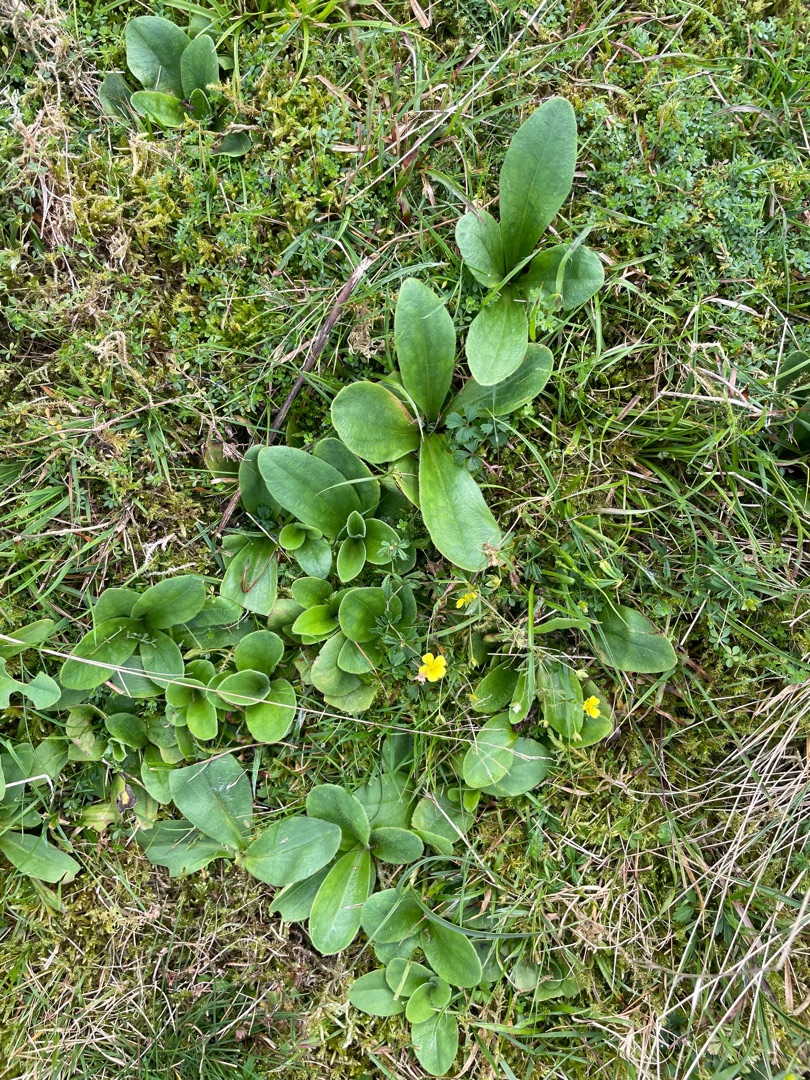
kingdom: Plantae
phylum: Tracheophyta
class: Magnoliopsida
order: Asterales
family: Asteraceae
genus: Arnica
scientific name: Arnica montana
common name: Guldblomme
